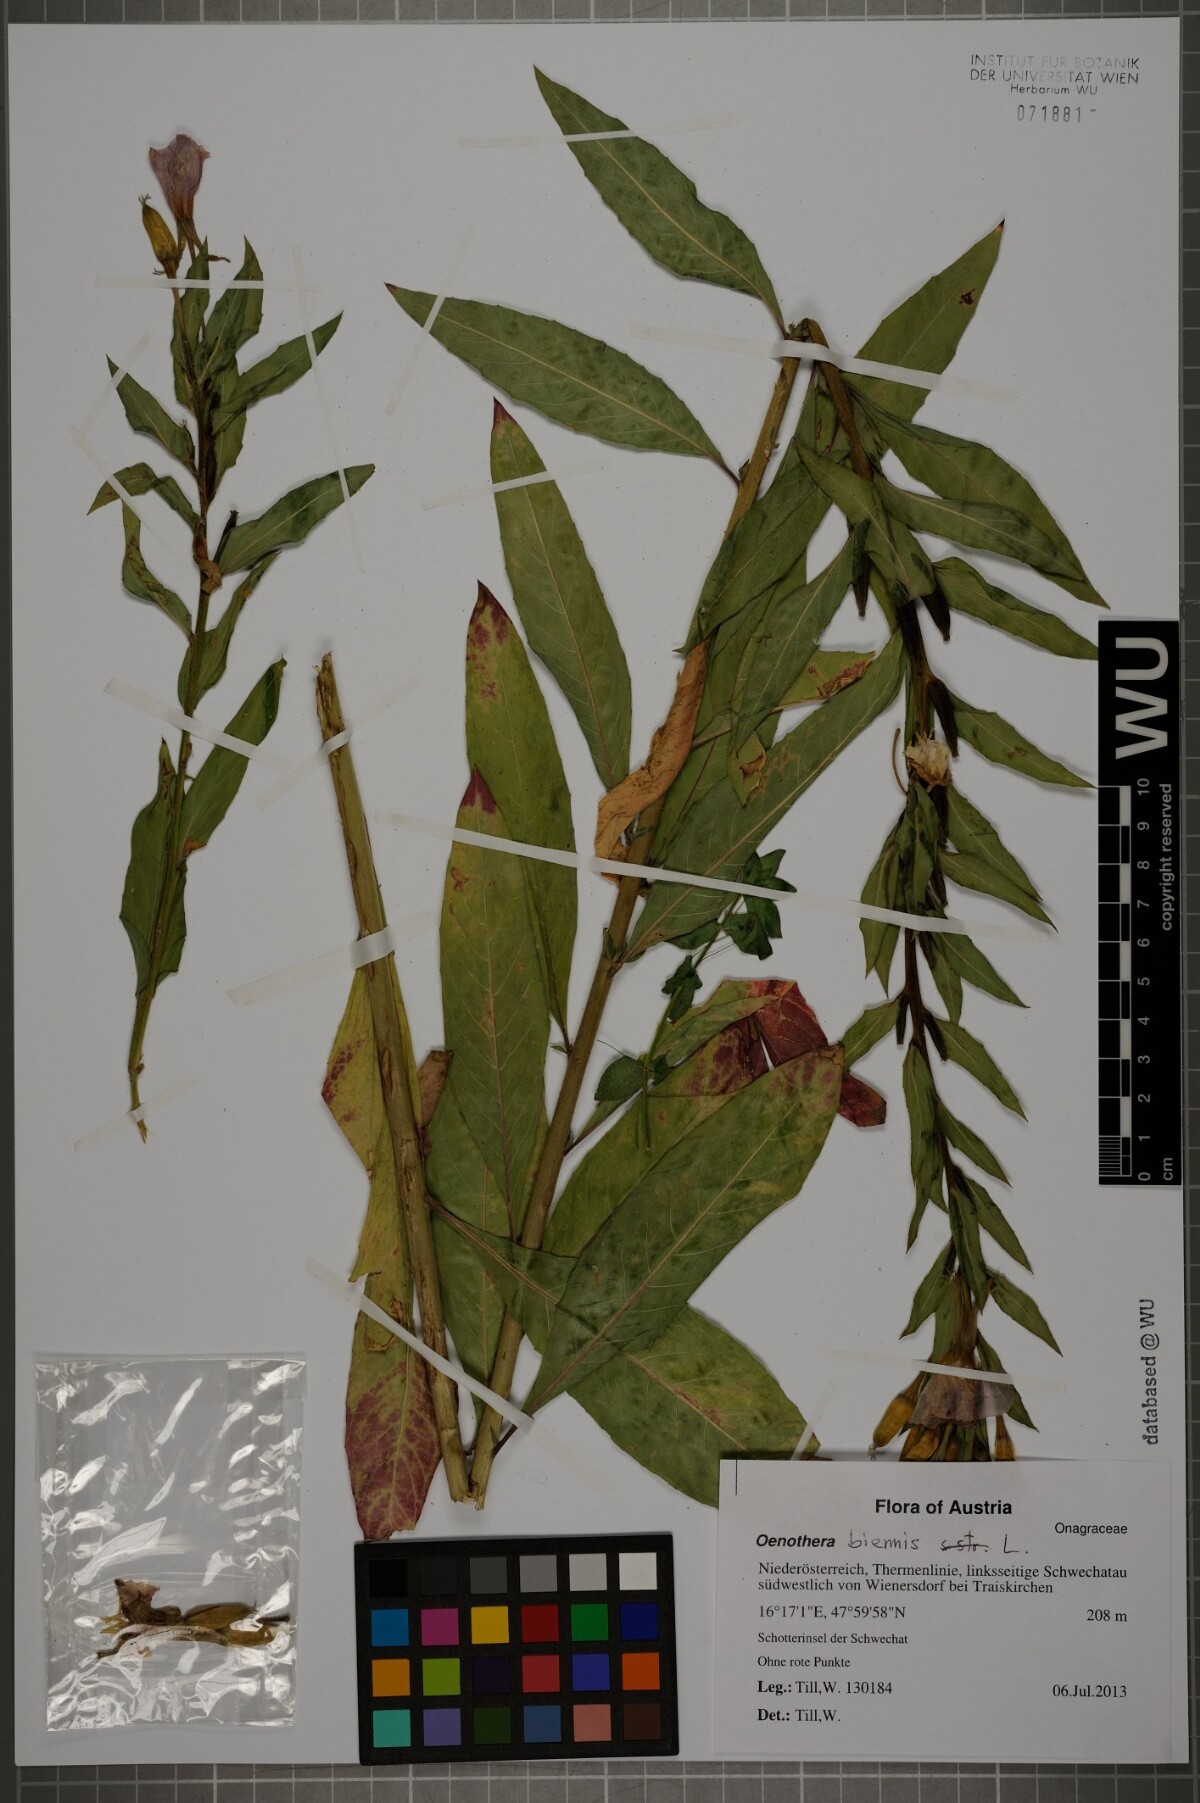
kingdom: Plantae
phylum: Tracheophyta
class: Magnoliopsida
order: Myrtales
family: Onagraceae
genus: Oenothera
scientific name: Oenothera biennis
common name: Common evening-primrose
